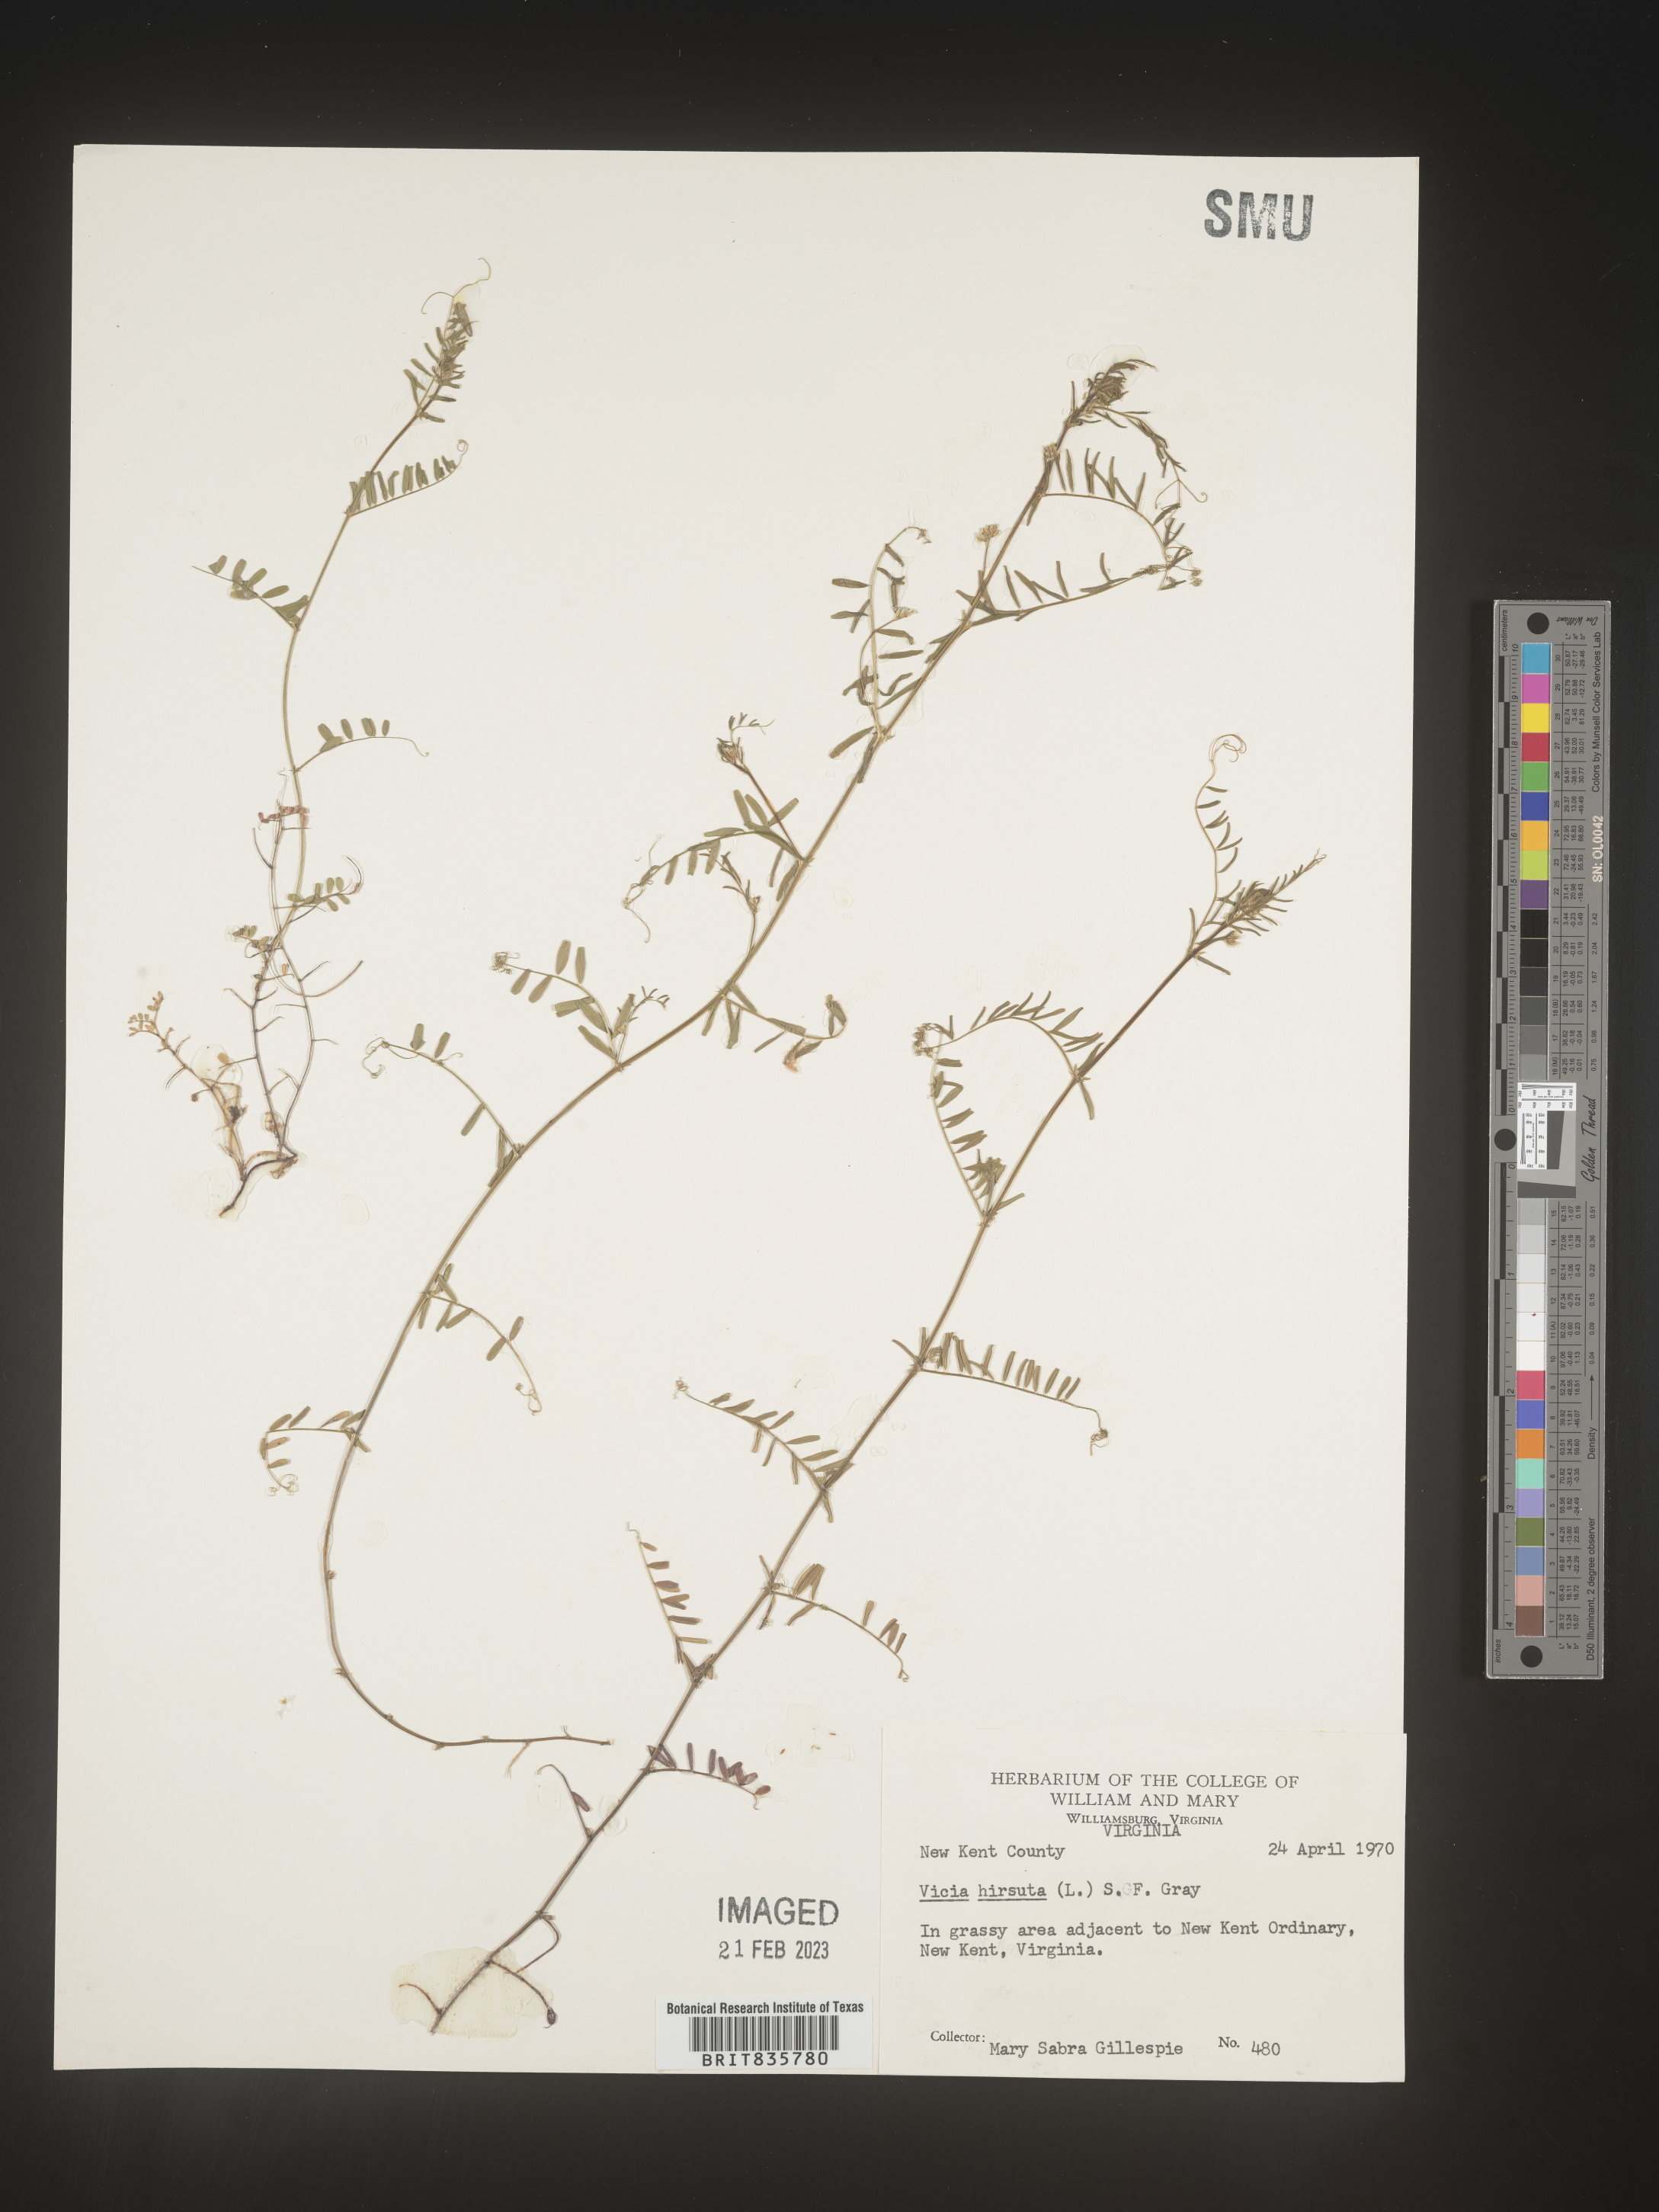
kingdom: Plantae
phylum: Tracheophyta
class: Magnoliopsida
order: Fabales
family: Fabaceae
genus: Vicia
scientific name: Vicia
